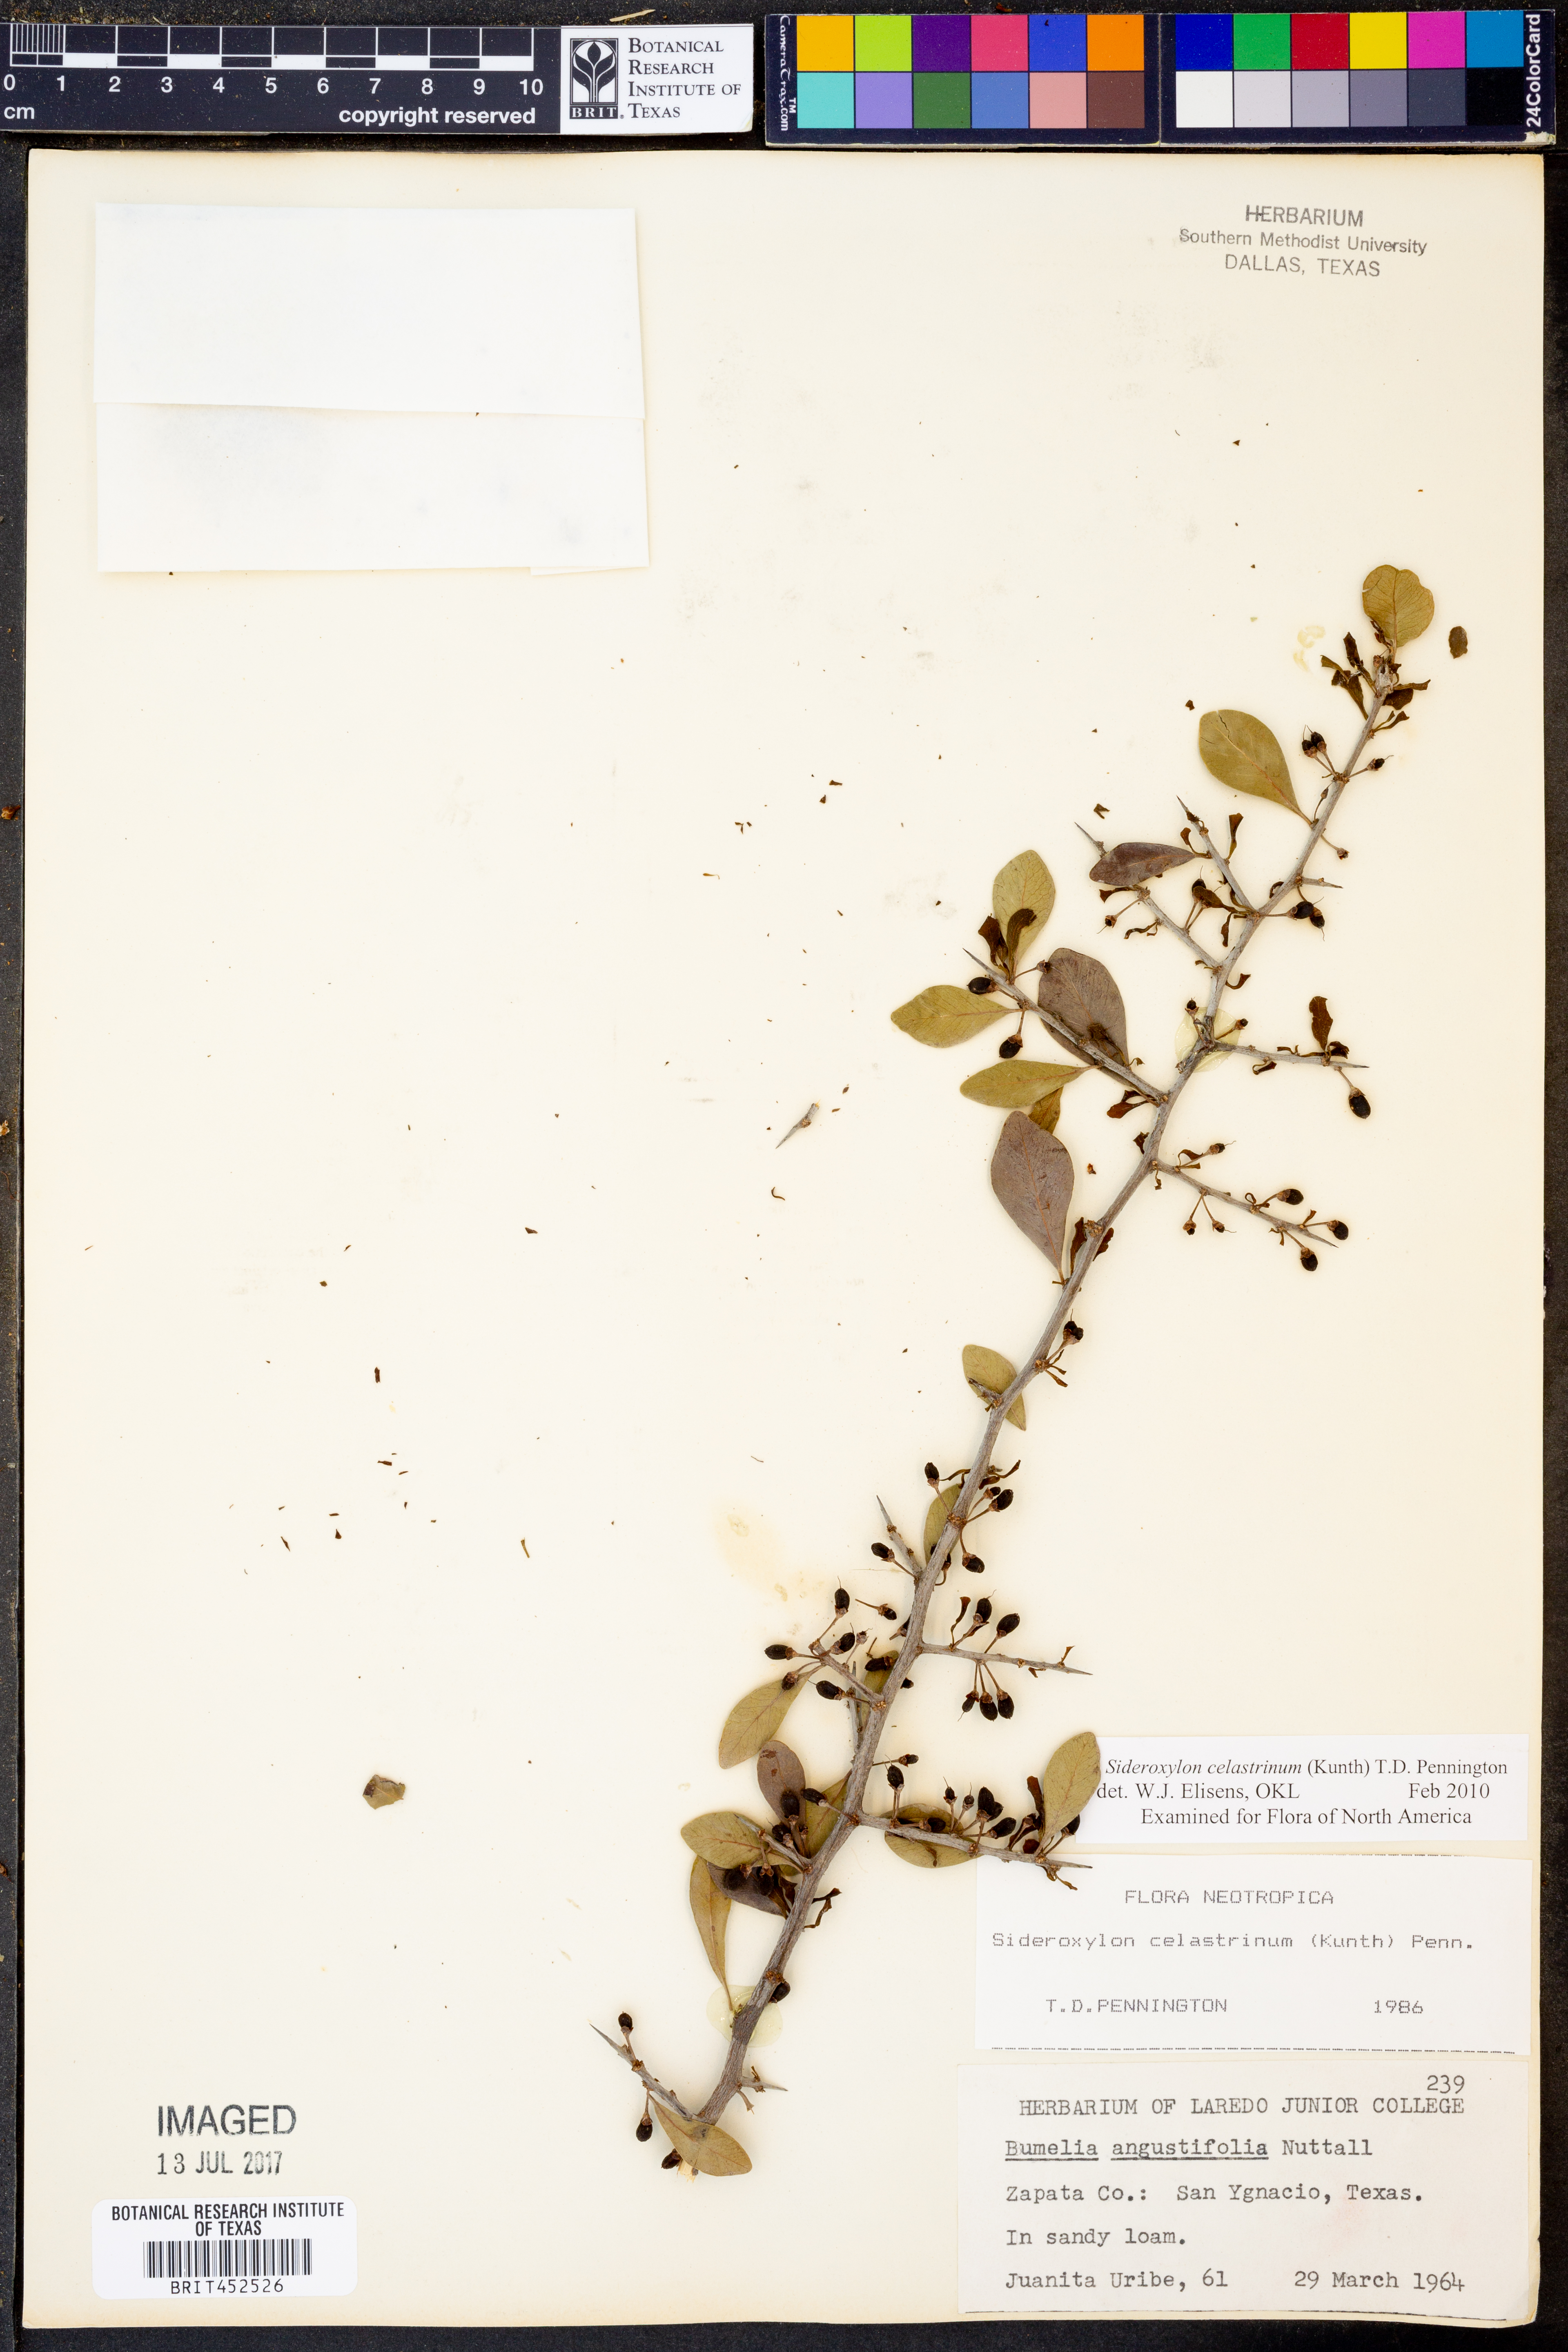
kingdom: Plantae
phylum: Tracheophyta
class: Magnoliopsida
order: Ericales
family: Sapotaceae
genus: Sideroxylon
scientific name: Sideroxylon celastrinum
